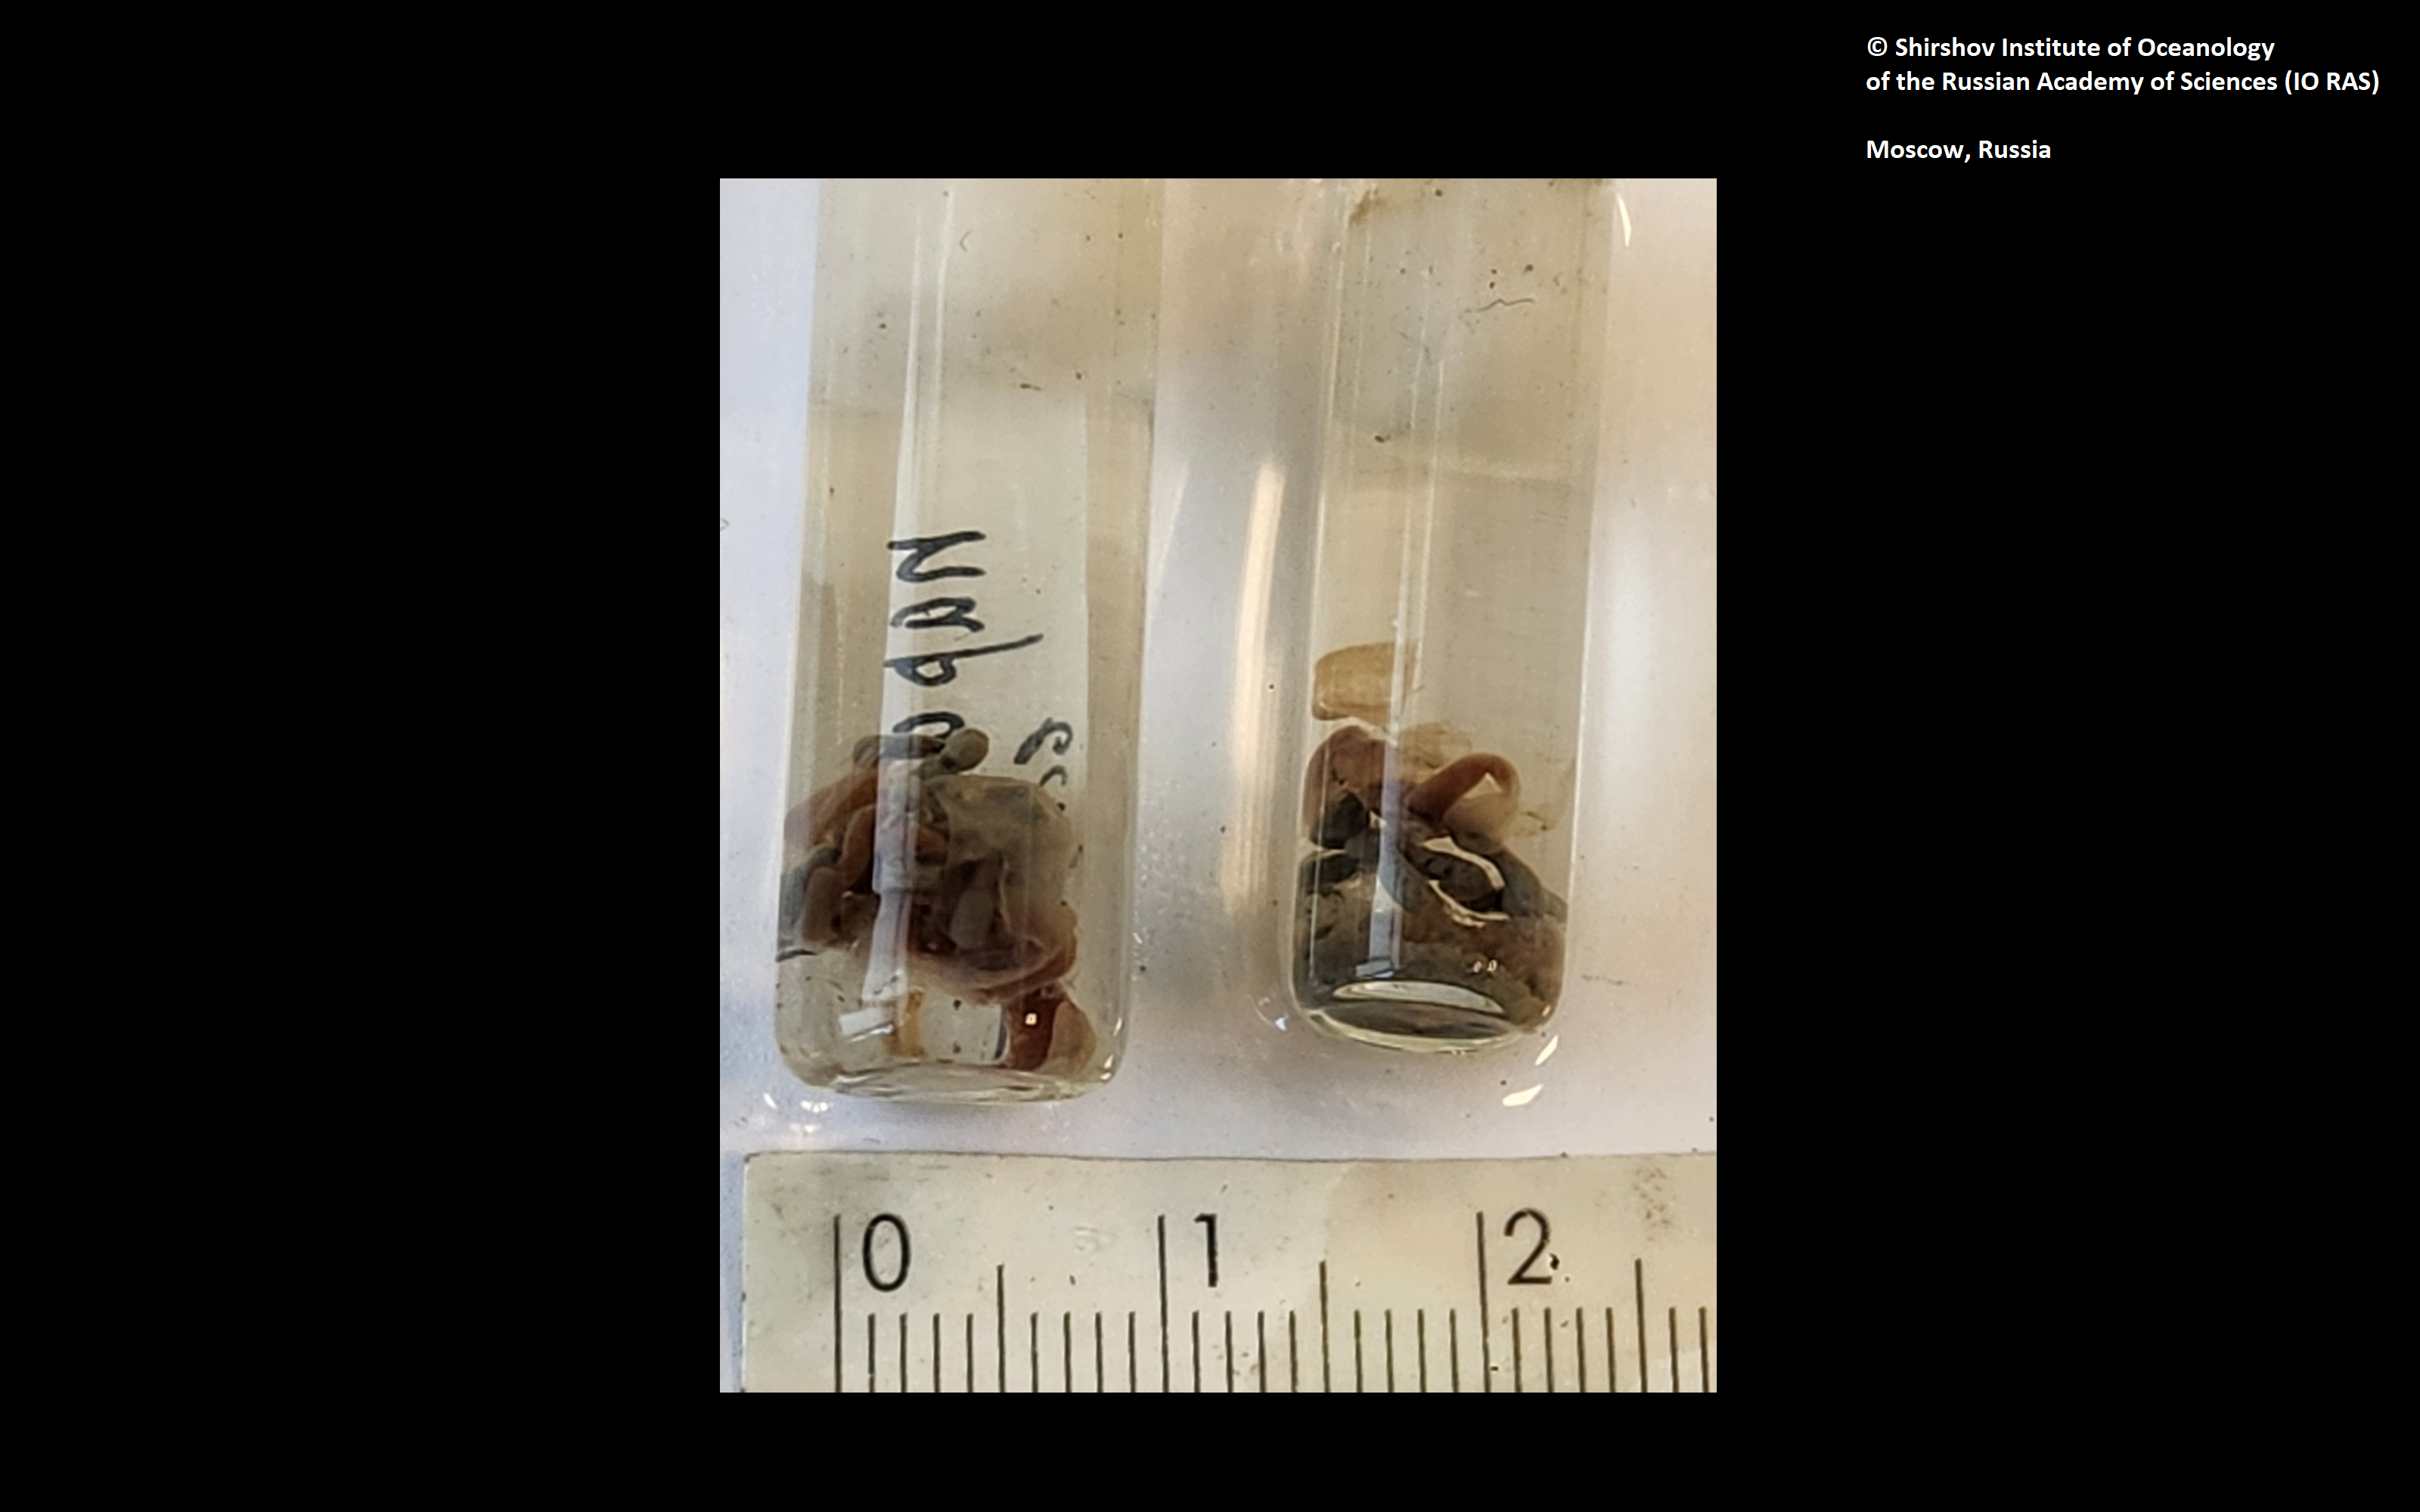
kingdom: Animalia
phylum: Annelida
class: Polychaeta
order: Echiuroidea
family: Bonelliidae
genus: Protobonellia
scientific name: Protobonellia zenkevitchi
